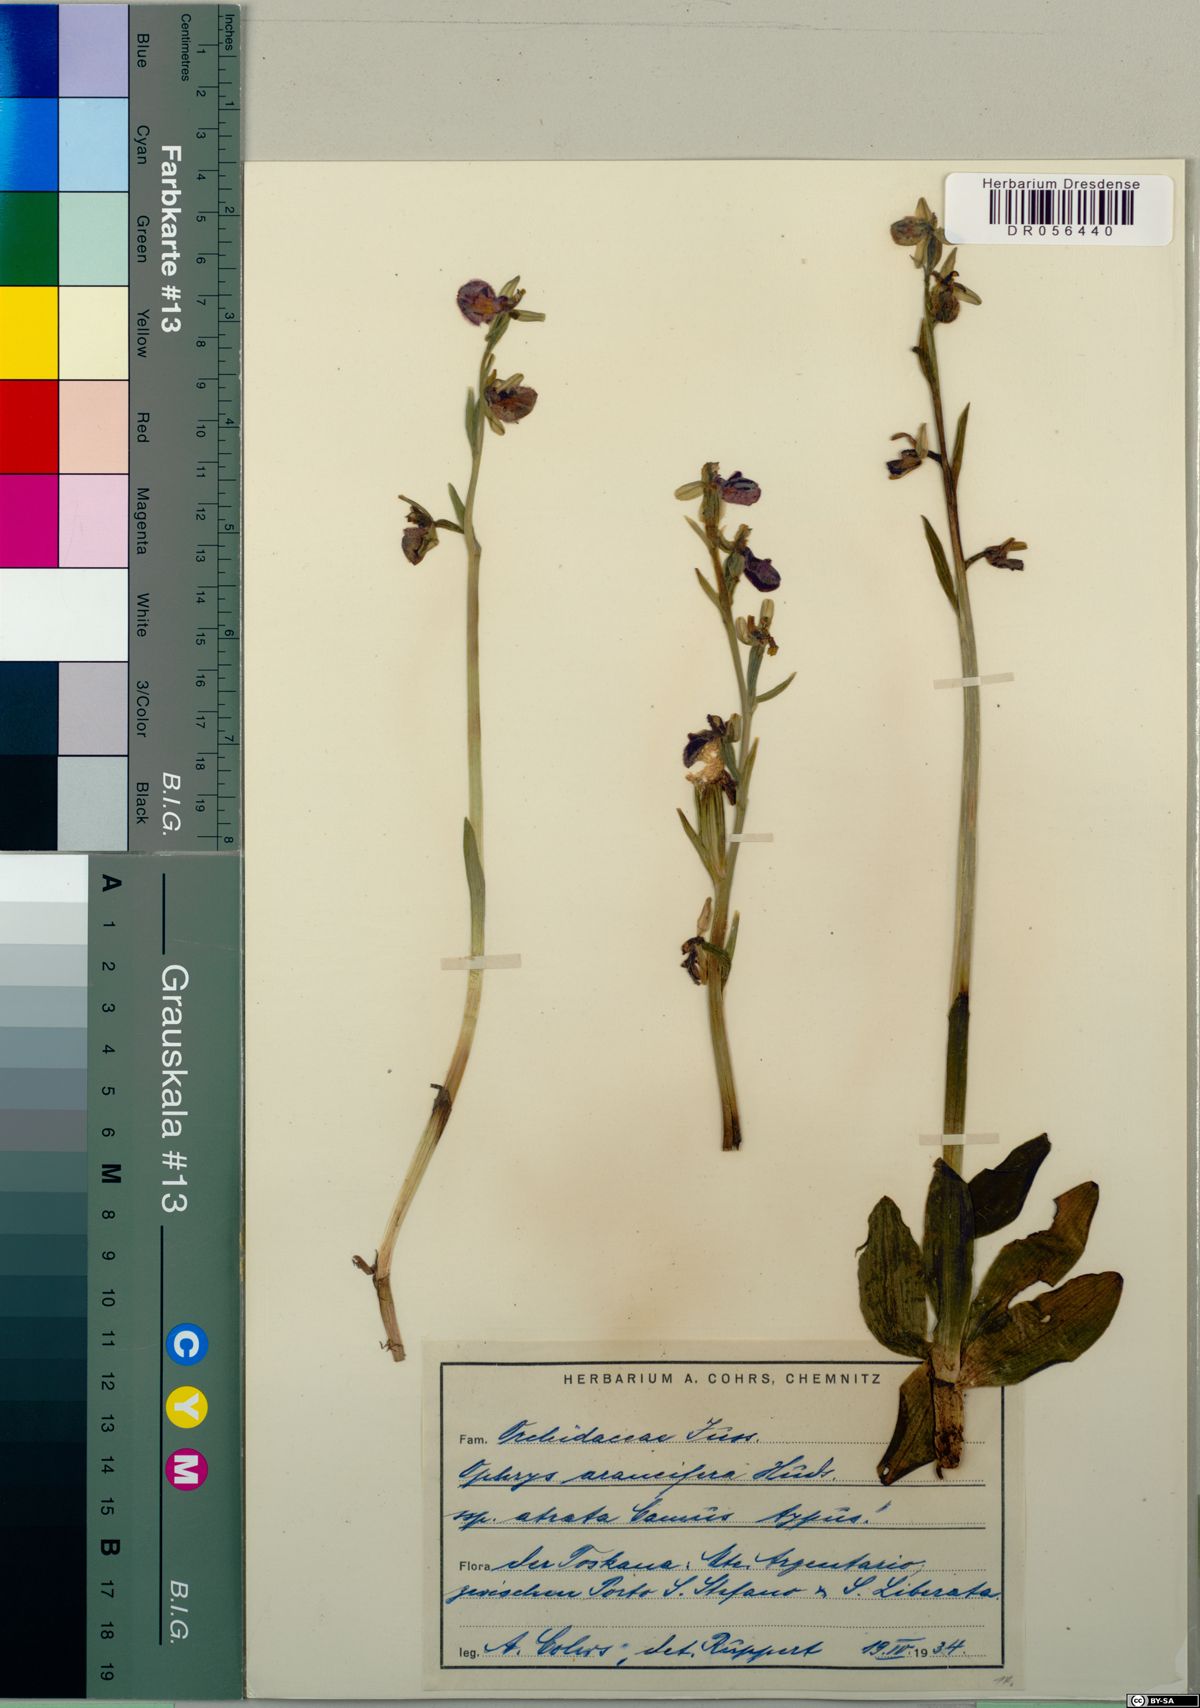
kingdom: Plantae
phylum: Tracheophyta
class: Liliopsida
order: Asparagales
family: Orchidaceae
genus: Ophrys
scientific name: Ophrys sphegodes
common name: Early spider-orchid
